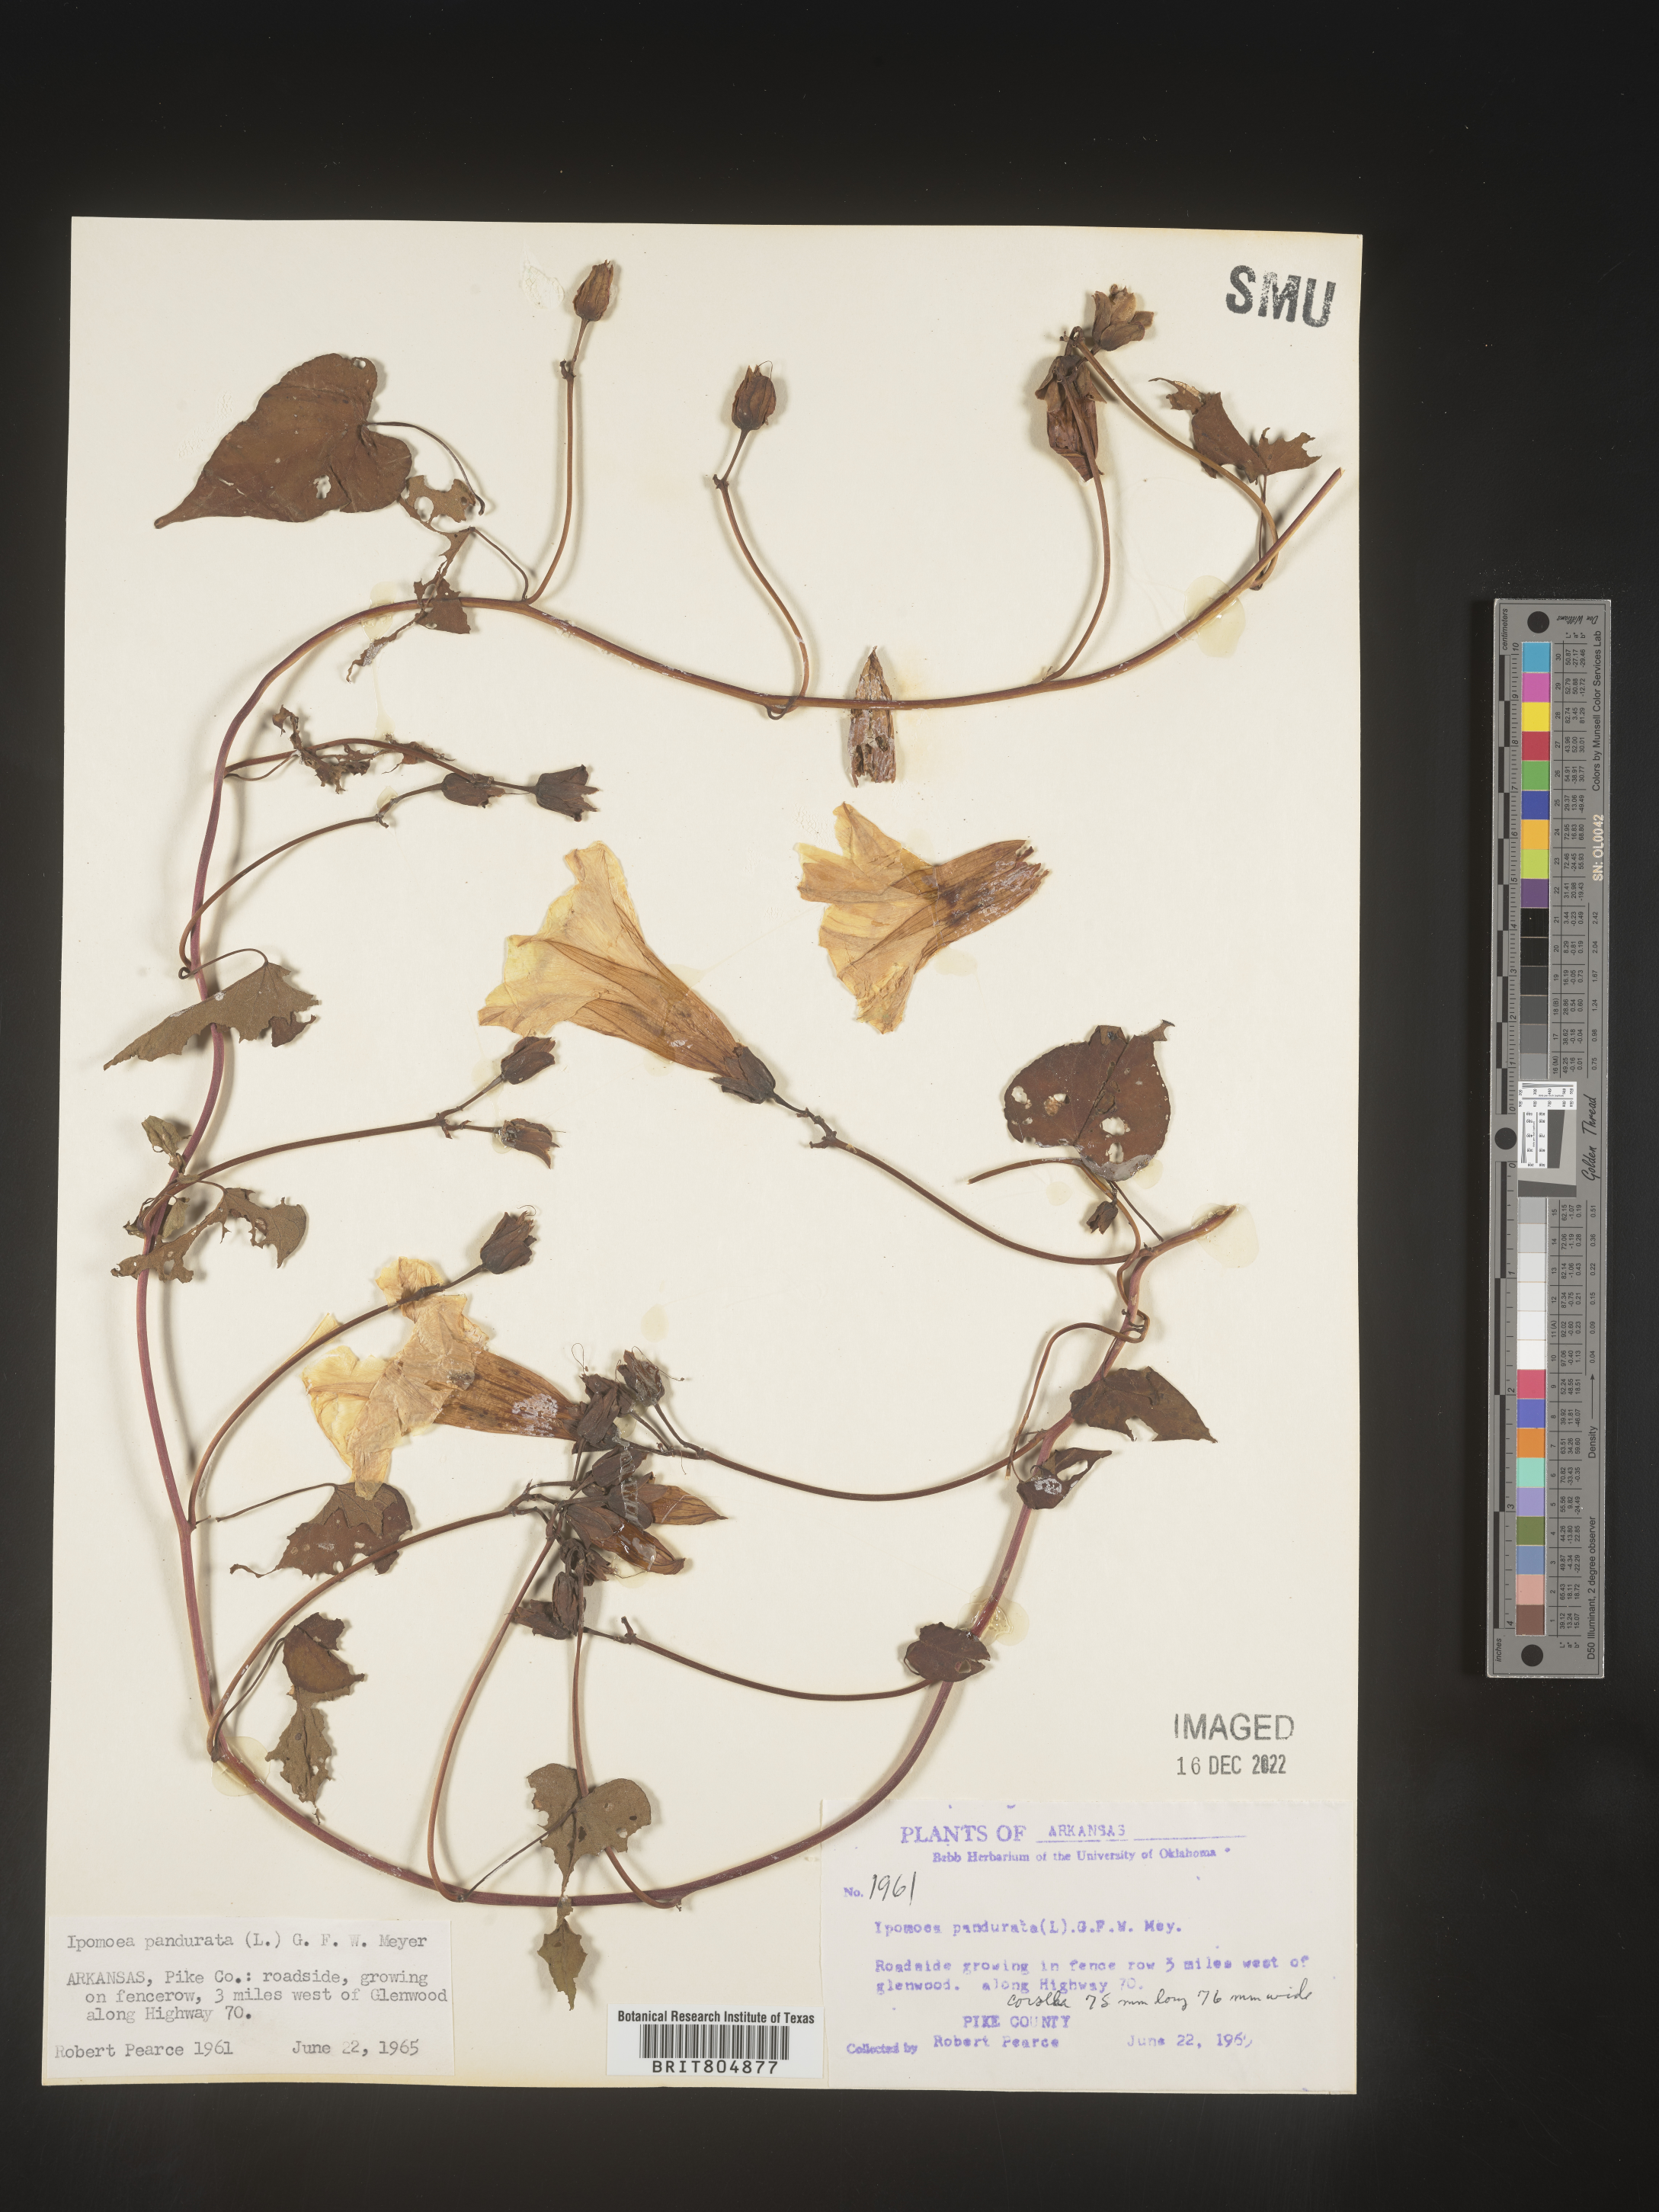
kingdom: Plantae
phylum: Tracheophyta
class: Magnoliopsida
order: Solanales
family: Convolvulaceae
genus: Ipomoea
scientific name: Ipomoea pandurata
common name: Man-of-the-earth
